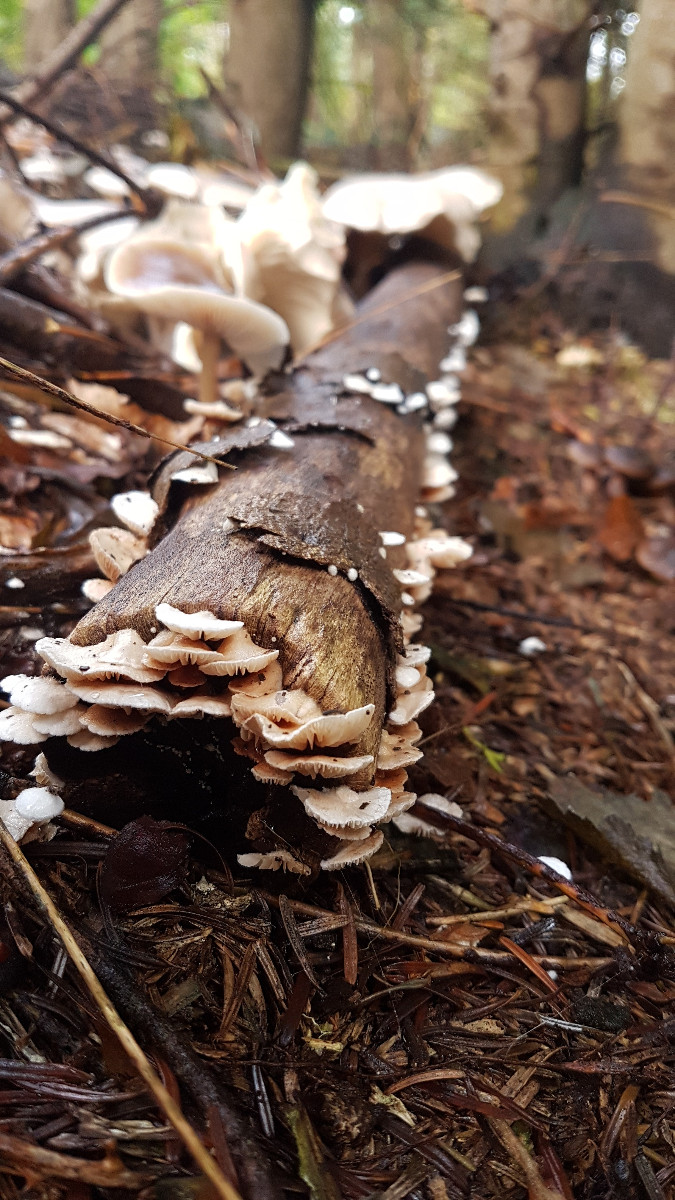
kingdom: Fungi
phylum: Basidiomycota
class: Agaricomycetes
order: Agaricales
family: Crepidotaceae
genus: Crepidotus
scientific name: Crepidotus
